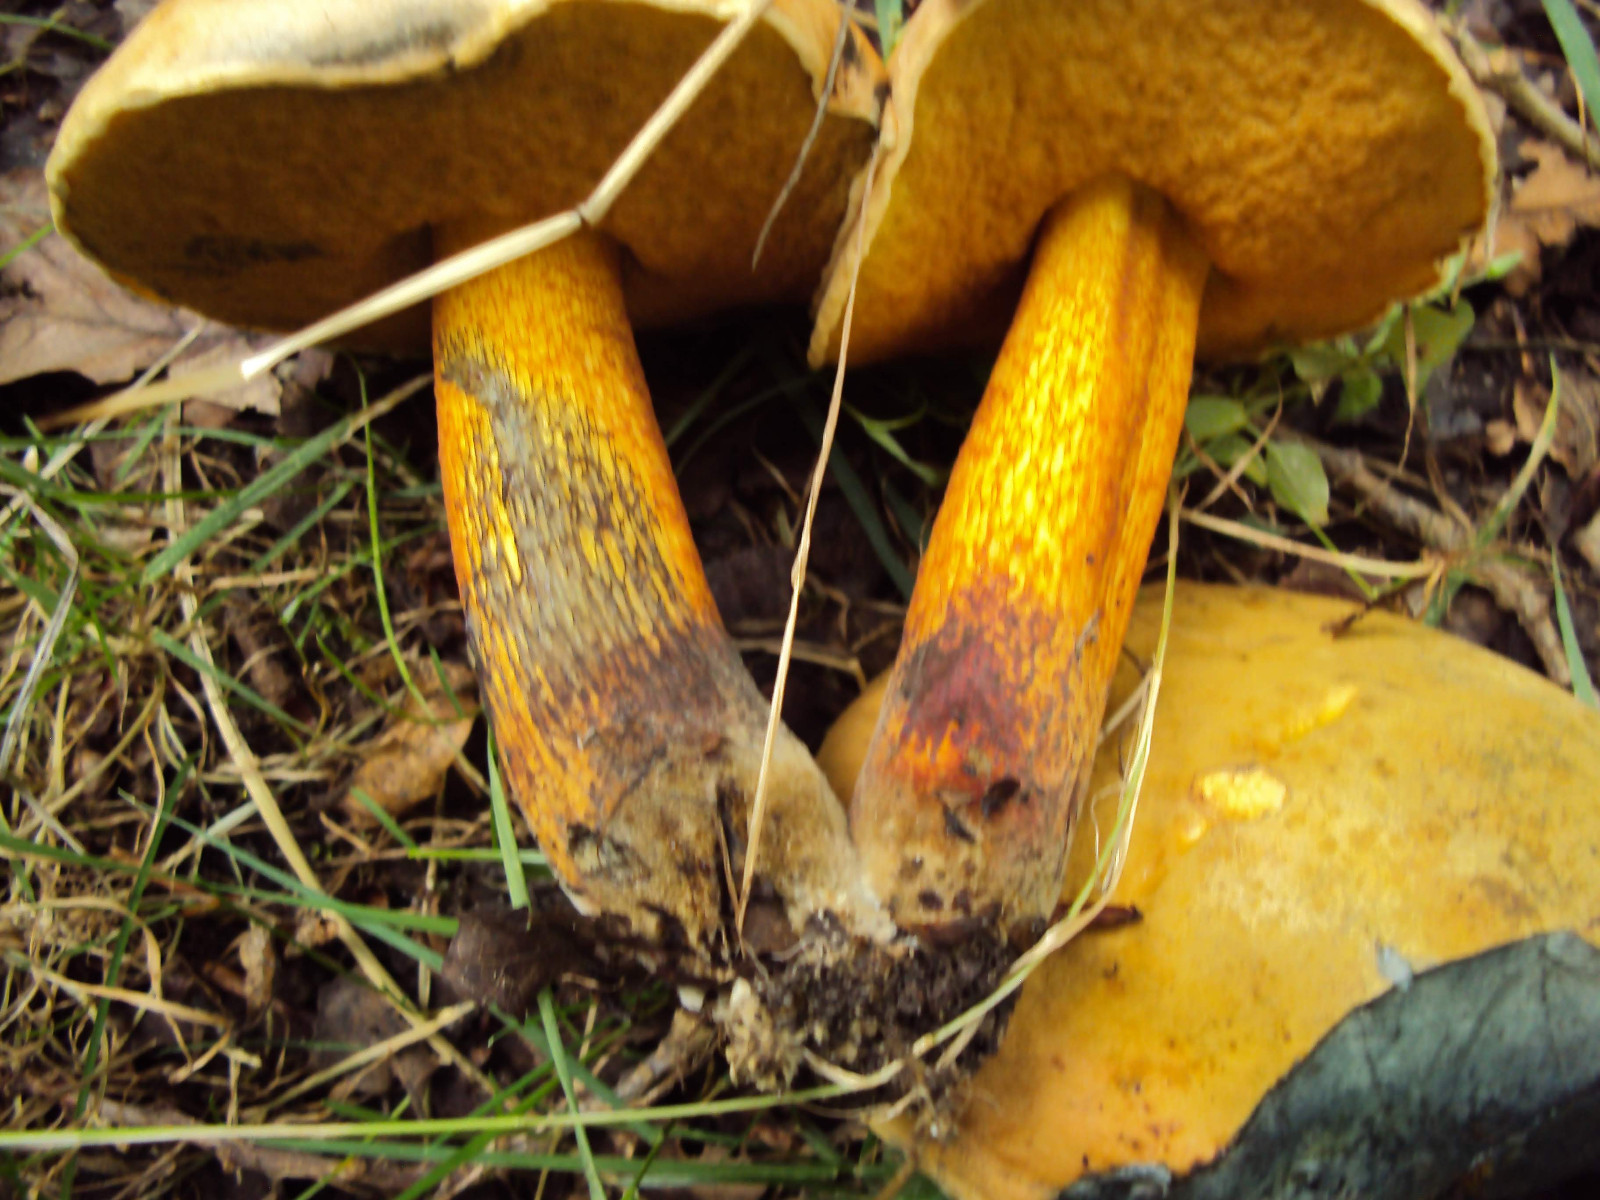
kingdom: Fungi
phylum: Basidiomycota
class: Agaricomycetes
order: Boletales
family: Boletaceae
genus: Suillellus
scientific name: Suillellus luridus
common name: netstokket indigorørhat
